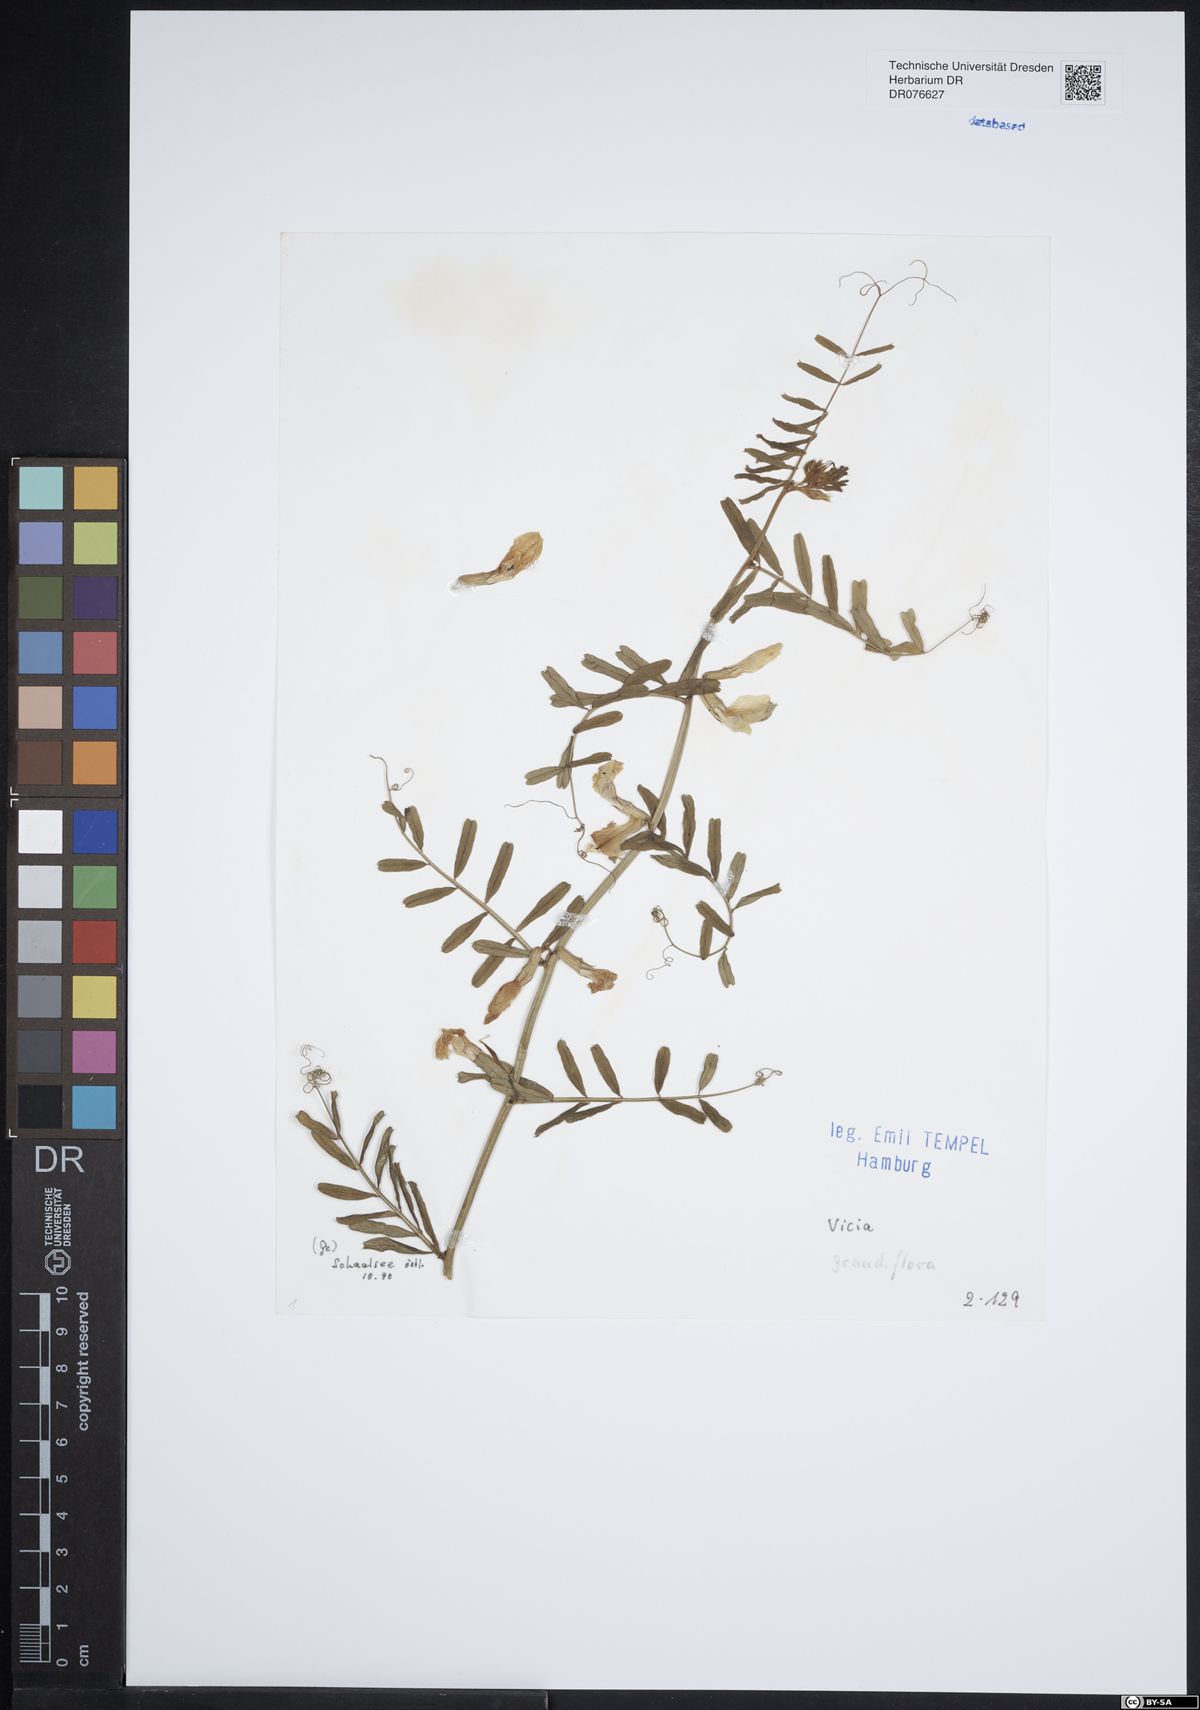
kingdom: Plantae
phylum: Tracheophyta
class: Magnoliopsida
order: Fabales
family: Fabaceae
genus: Vicia
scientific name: Vicia grandiflora
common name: Large yellow vetch
